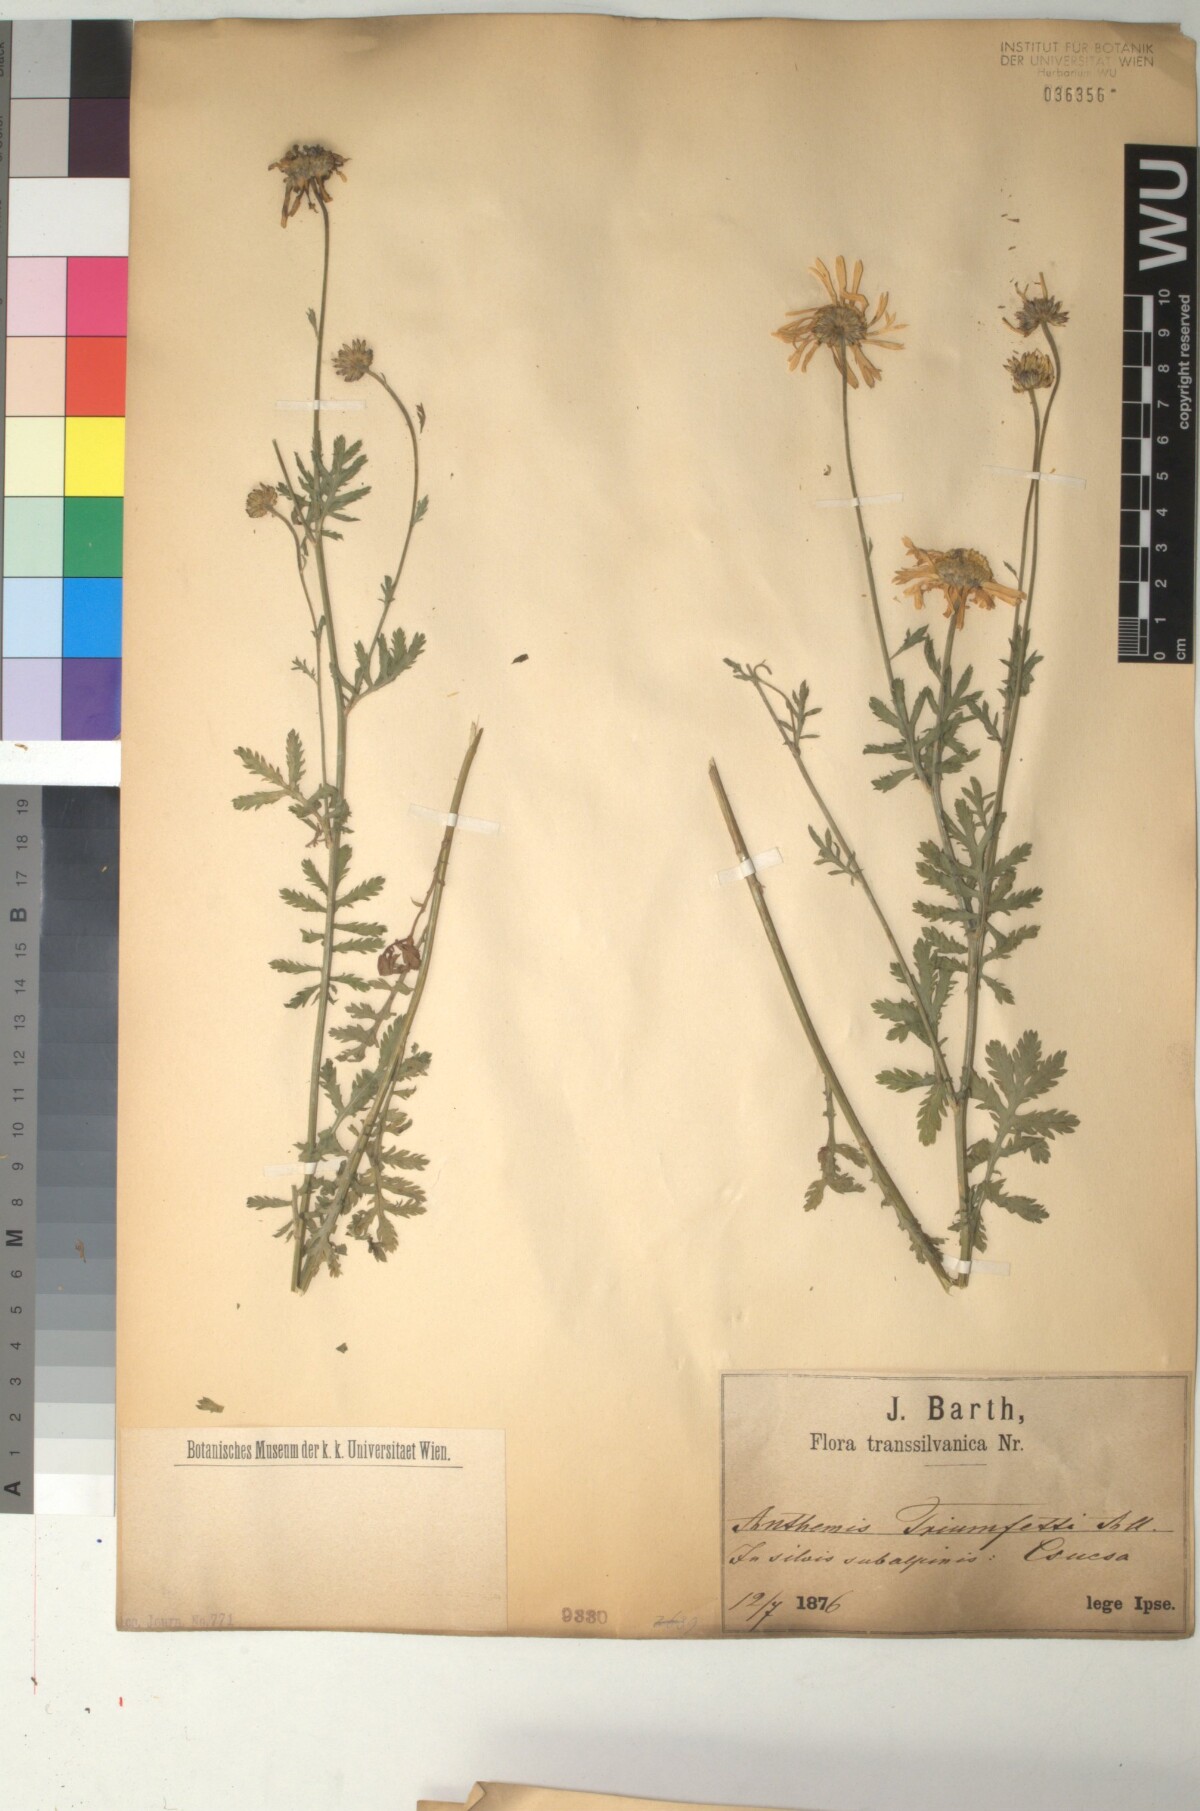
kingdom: Plantae
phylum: Tracheophyta
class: Magnoliopsida
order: Asterales
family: Asteraceae
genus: Cota
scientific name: Cota macrantha
